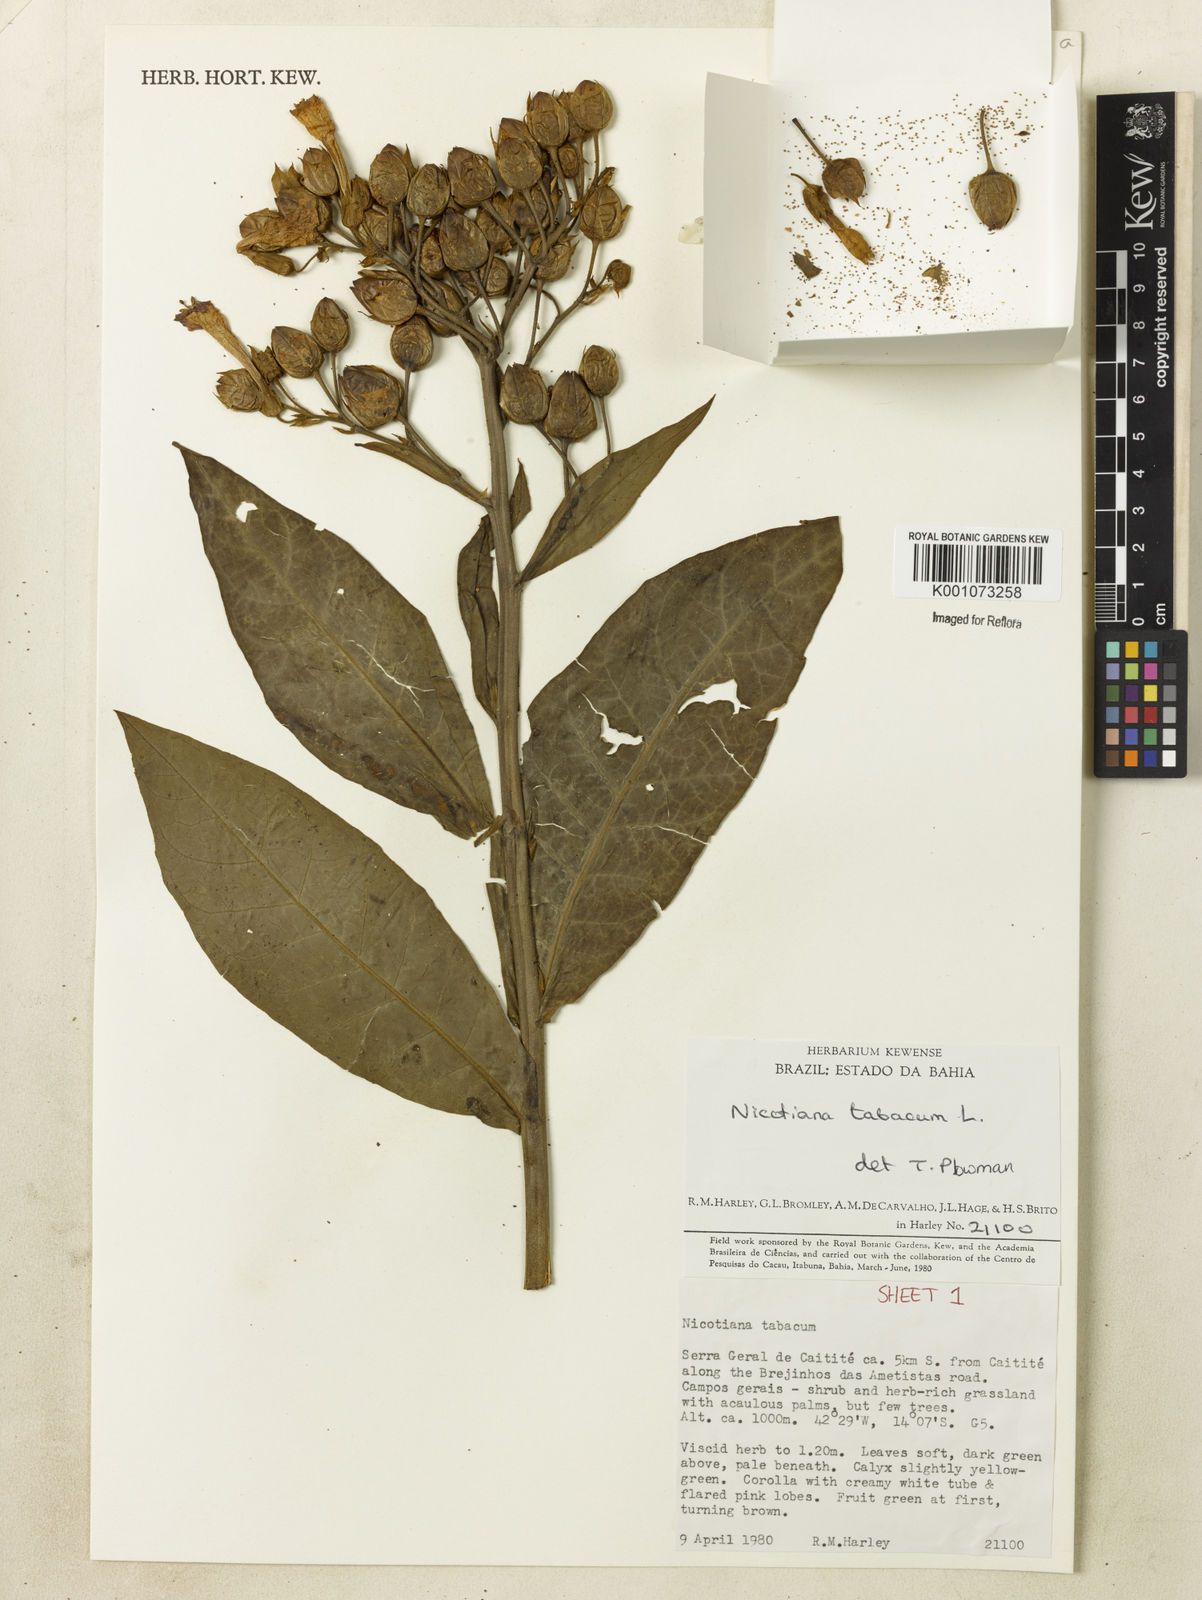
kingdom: Plantae
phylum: Tracheophyta
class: Magnoliopsida
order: Solanales
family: Solanaceae
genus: Nicotiana
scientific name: Nicotiana tabacum
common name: Tobacco
